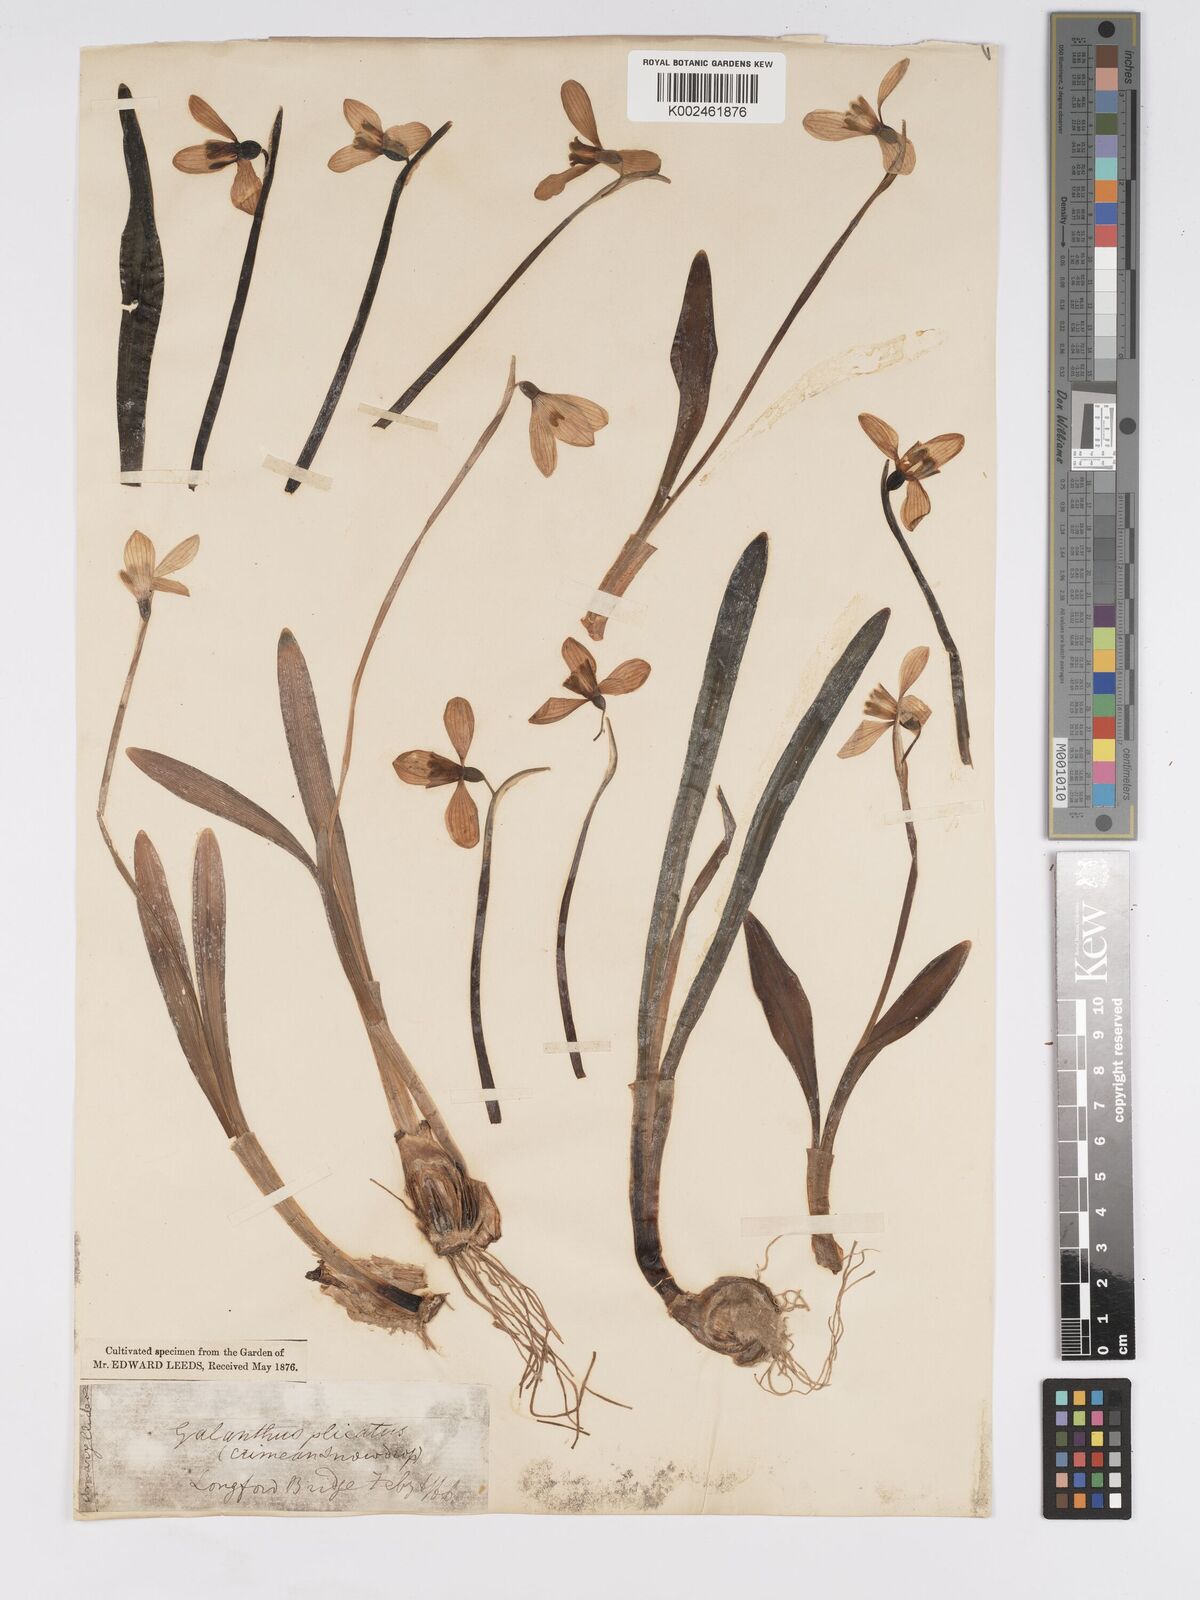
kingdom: Plantae
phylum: Tracheophyta
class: Liliopsida
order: Asparagales
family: Amaryllidaceae
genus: Galanthus
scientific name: Galanthus plicatus
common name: Pleated snowdrop
